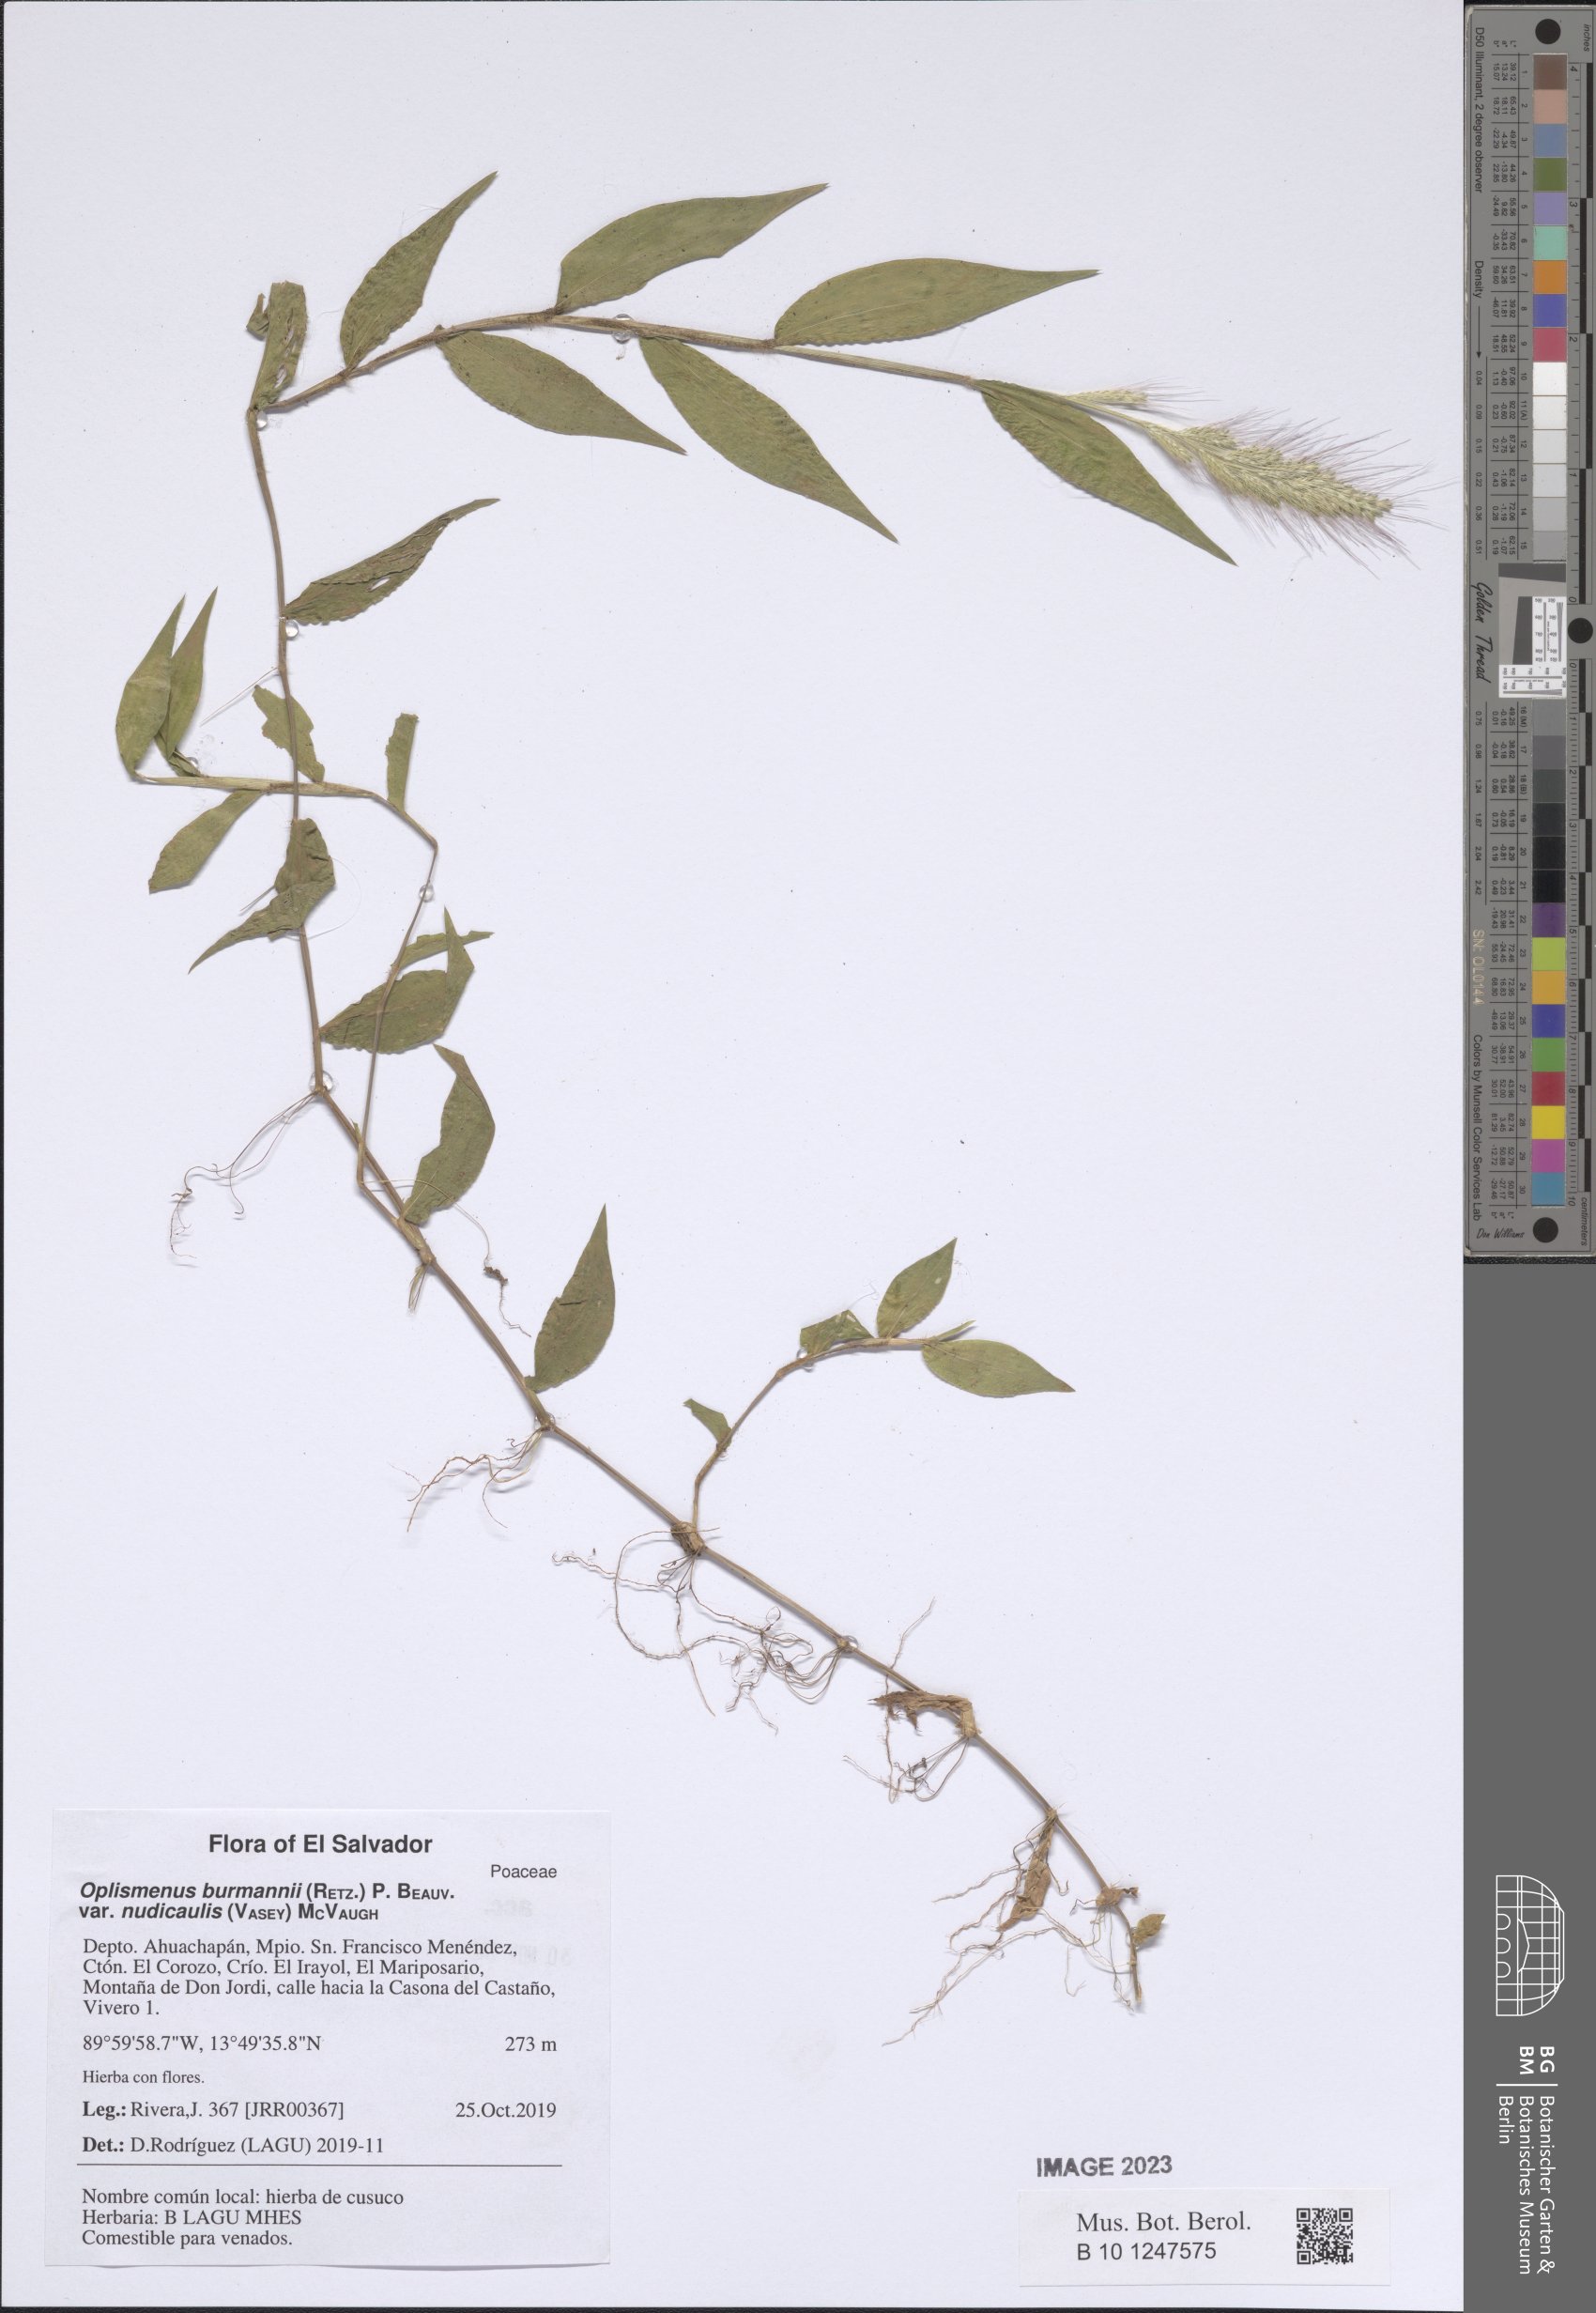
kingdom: Plantae
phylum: Tracheophyta
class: Liliopsida
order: Poales
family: Poaceae
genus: Oplismenus
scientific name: Oplismenus burmanni
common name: Burmann's basketgrass
